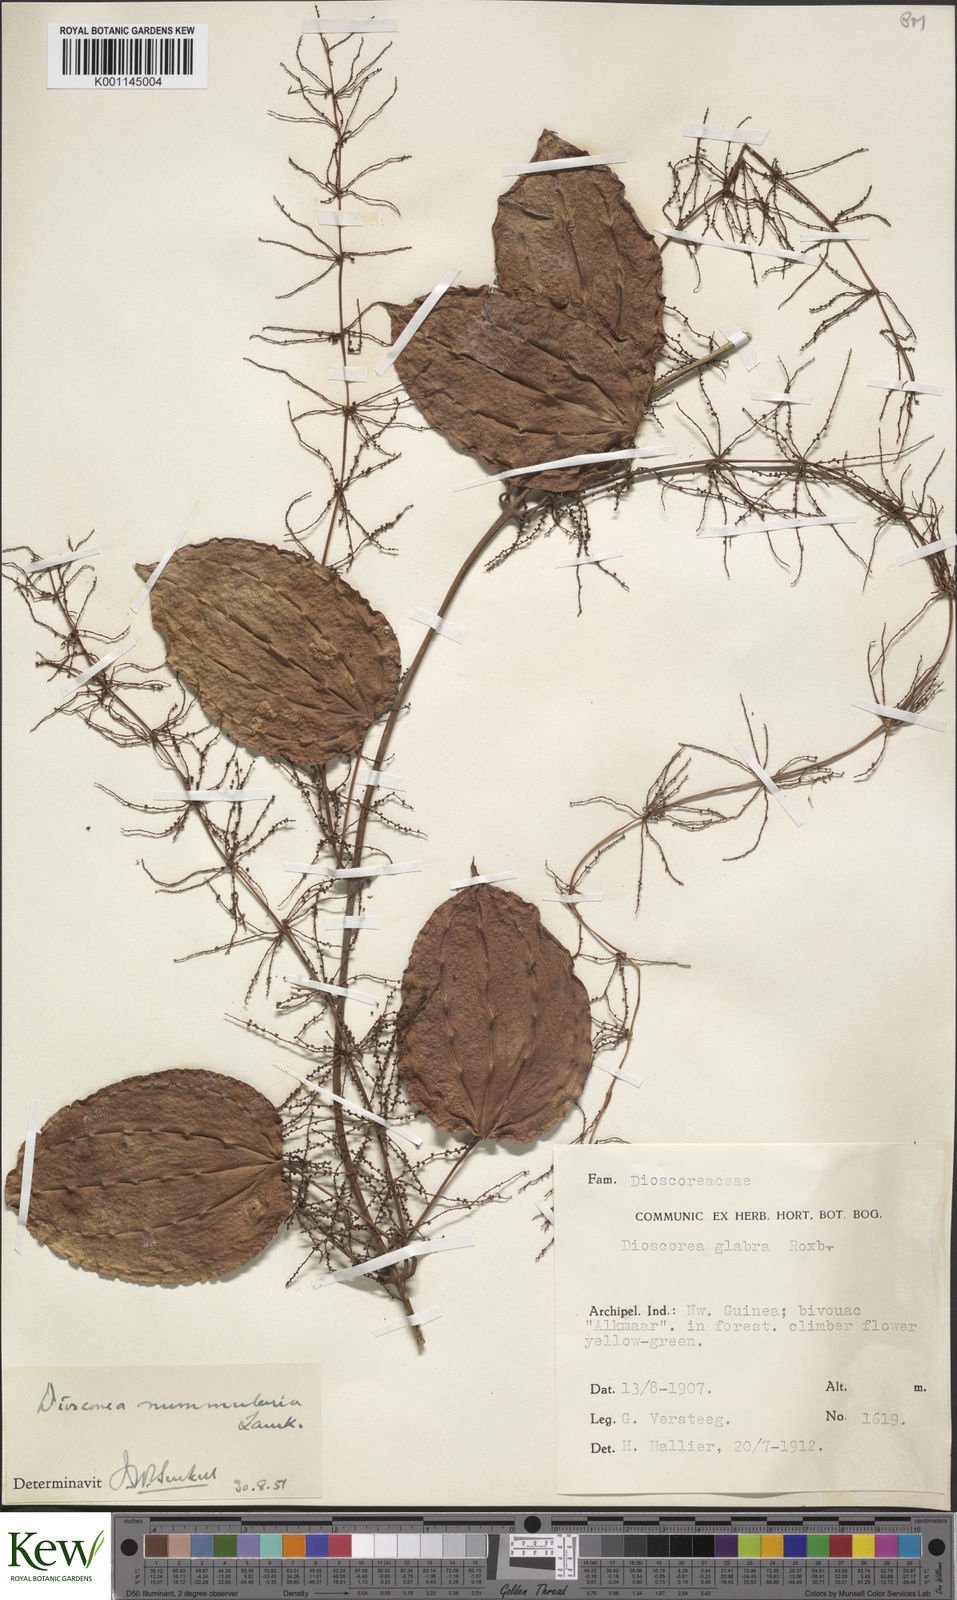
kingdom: Plantae
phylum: Tracheophyta
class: Liliopsida
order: Dioscoreales
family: Dioscoreaceae
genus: Dioscorea
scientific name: Dioscorea nummularia
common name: Pacific yam
